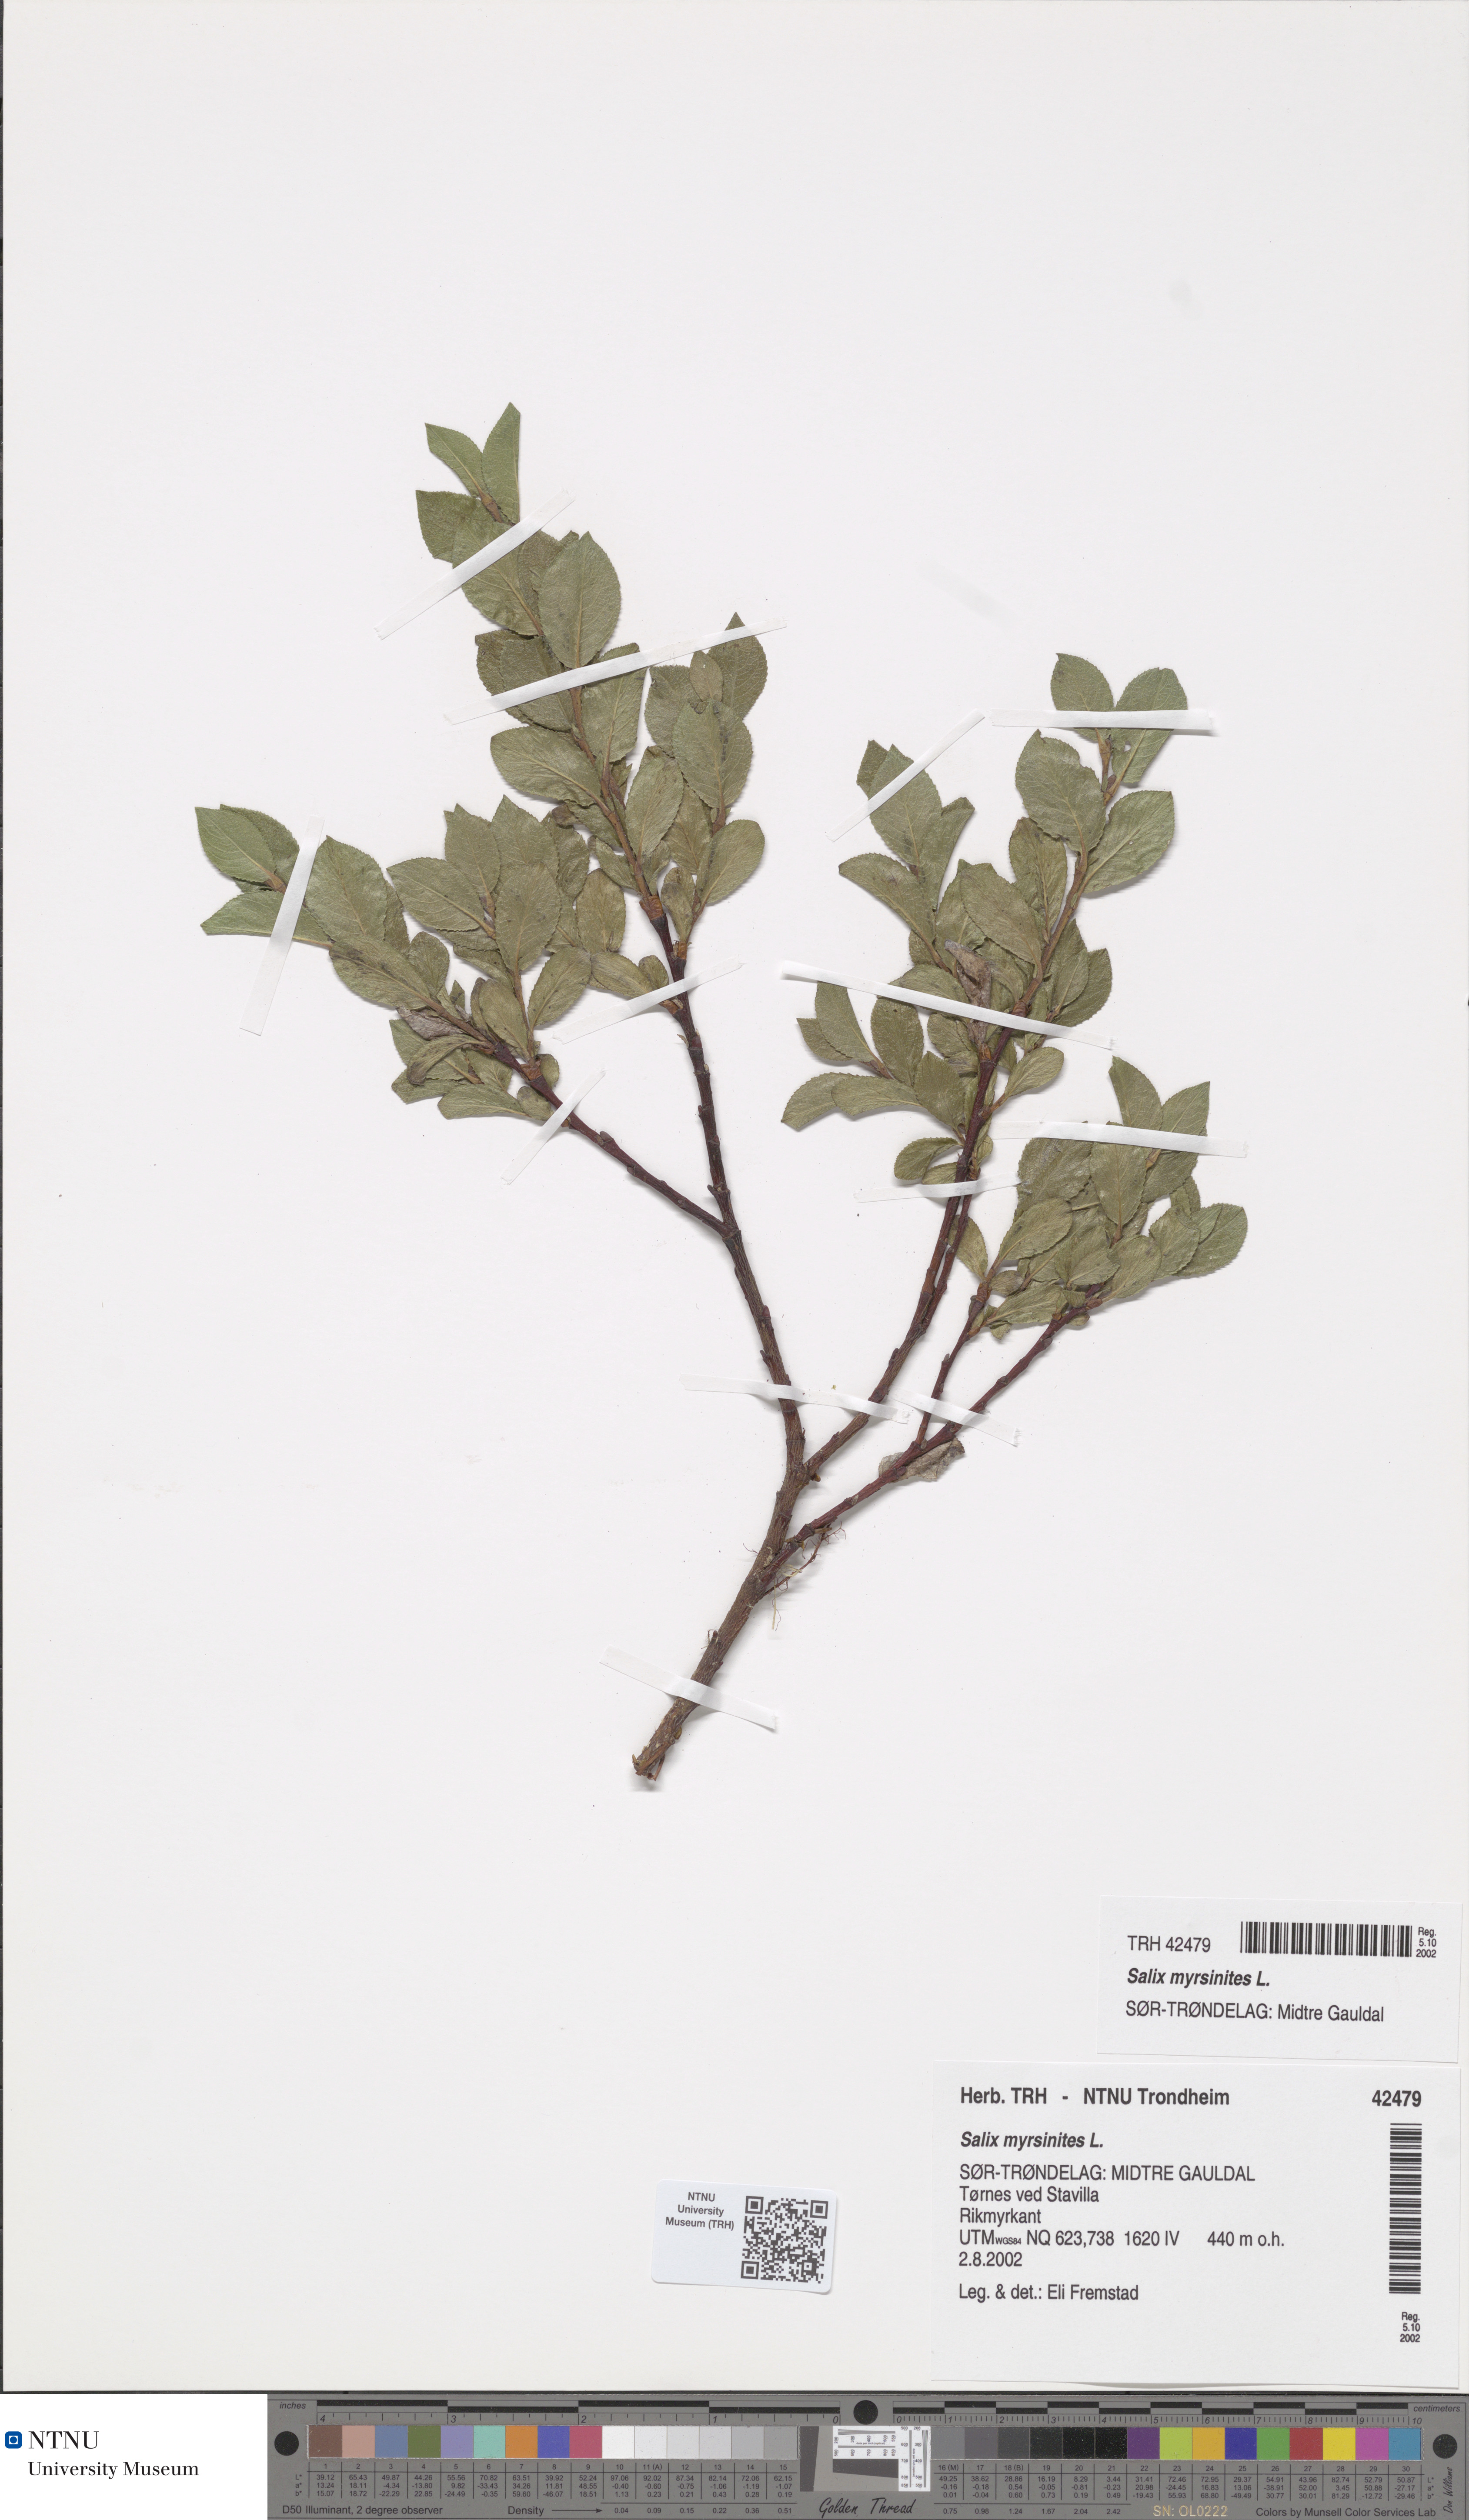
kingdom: Plantae
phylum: Tracheophyta
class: Magnoliopsida
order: Malpighiales
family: Salicaceae
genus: Salix
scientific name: Salix myrsinites
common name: Myrtle willow
